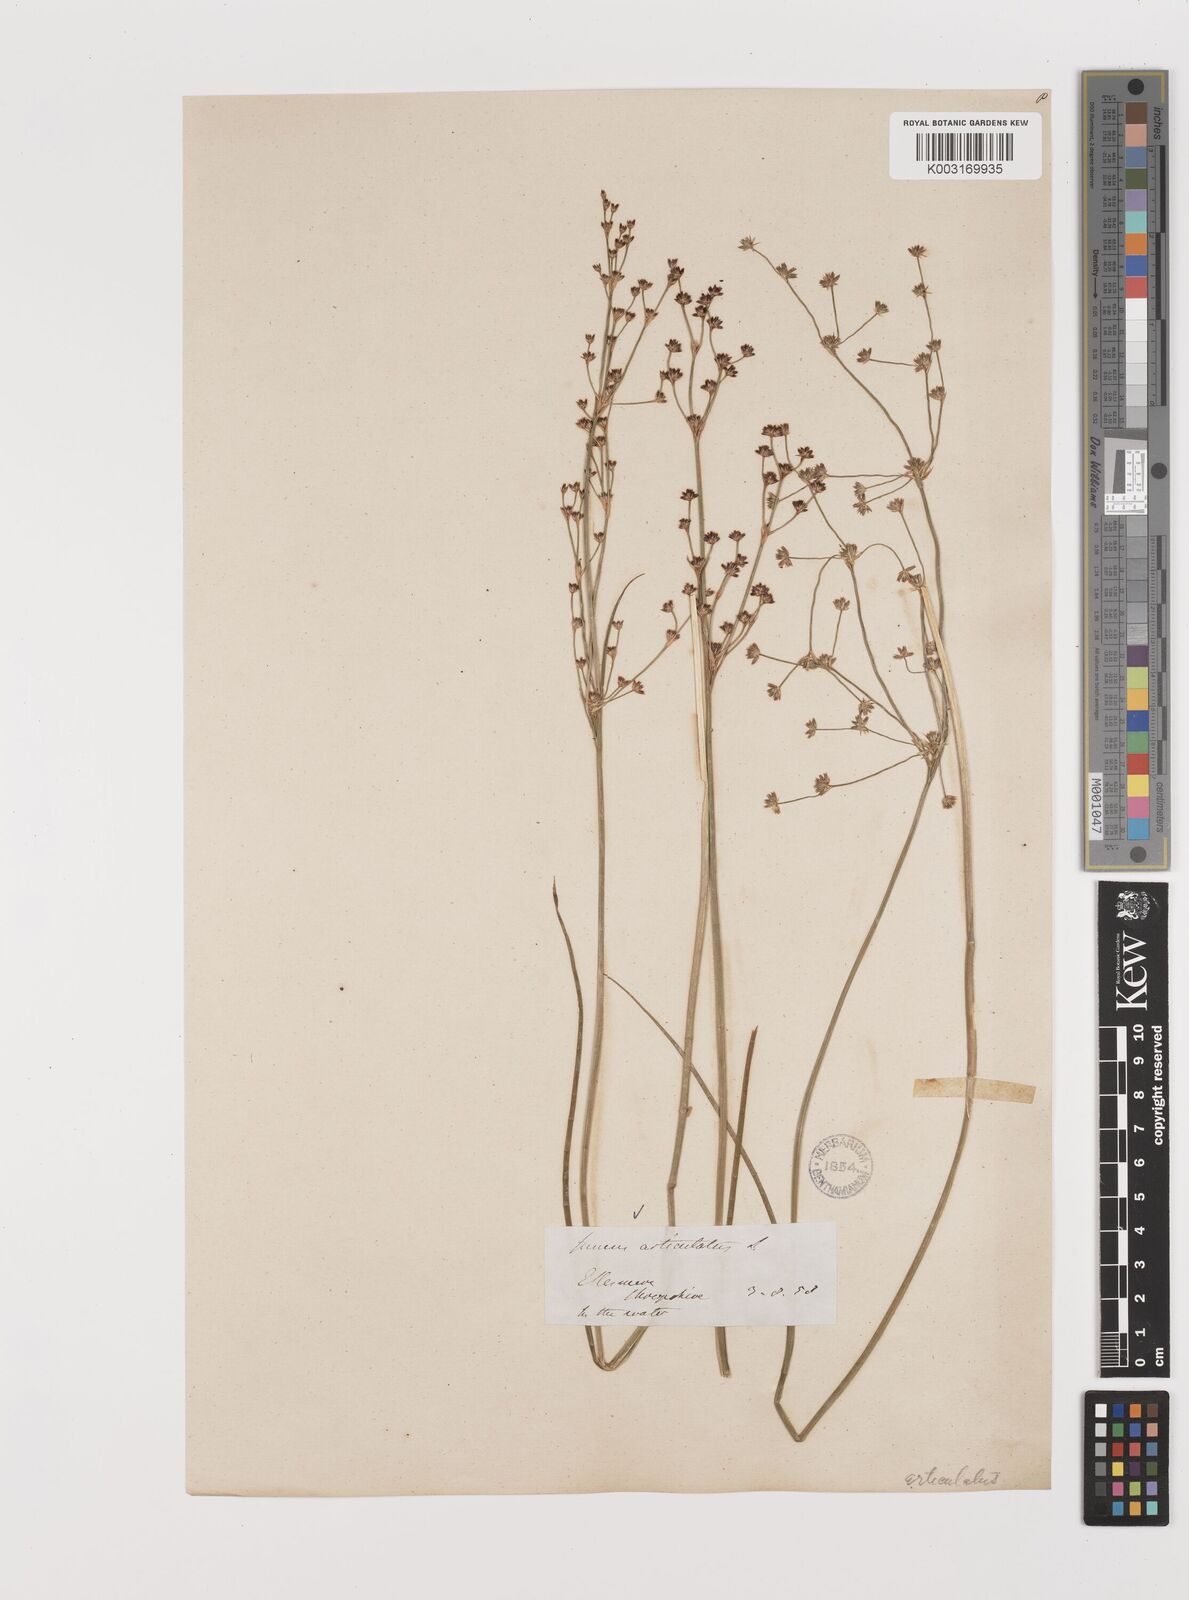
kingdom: Plantae
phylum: Tracheophyta
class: Liliopsida
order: Poales
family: Juncaceae
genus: Juncus
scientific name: Juncus articulatus
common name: Jointed rush
